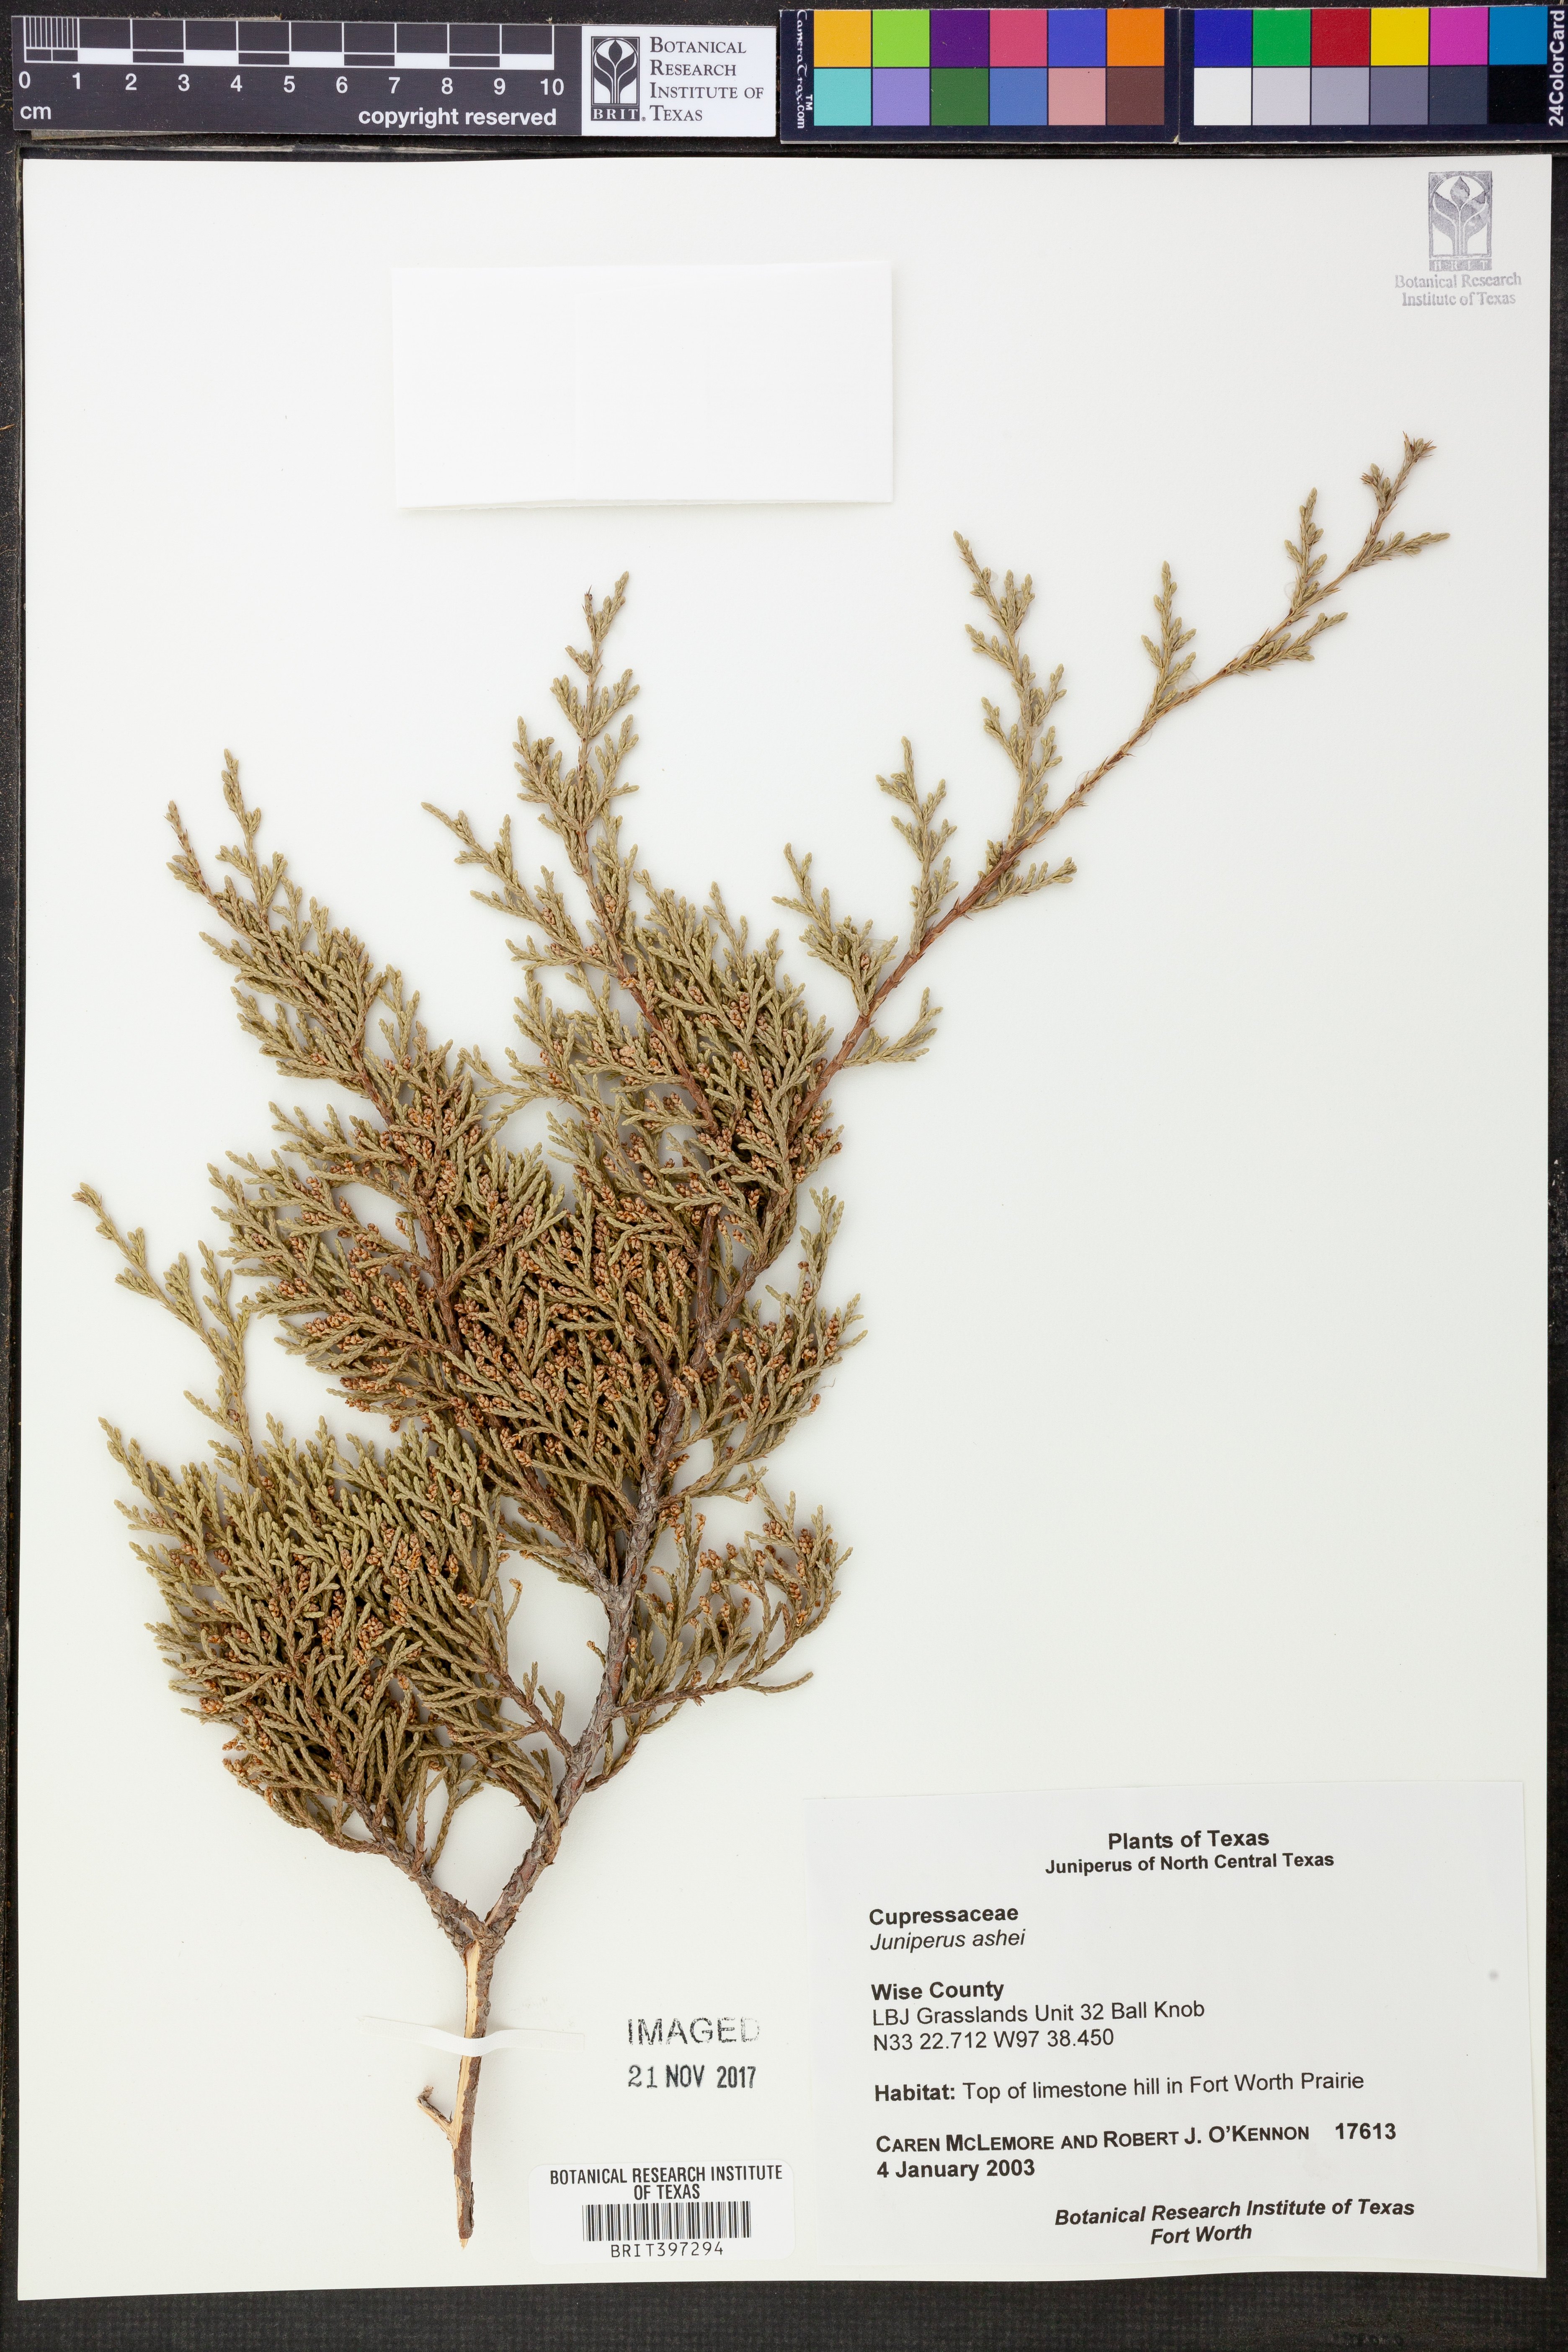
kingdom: Plantae
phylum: Tracheophyta
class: Pinopsida
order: Pinales
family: Cupressaceae
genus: Juniperus
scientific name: Juniperus ashei
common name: Mexican juniper
